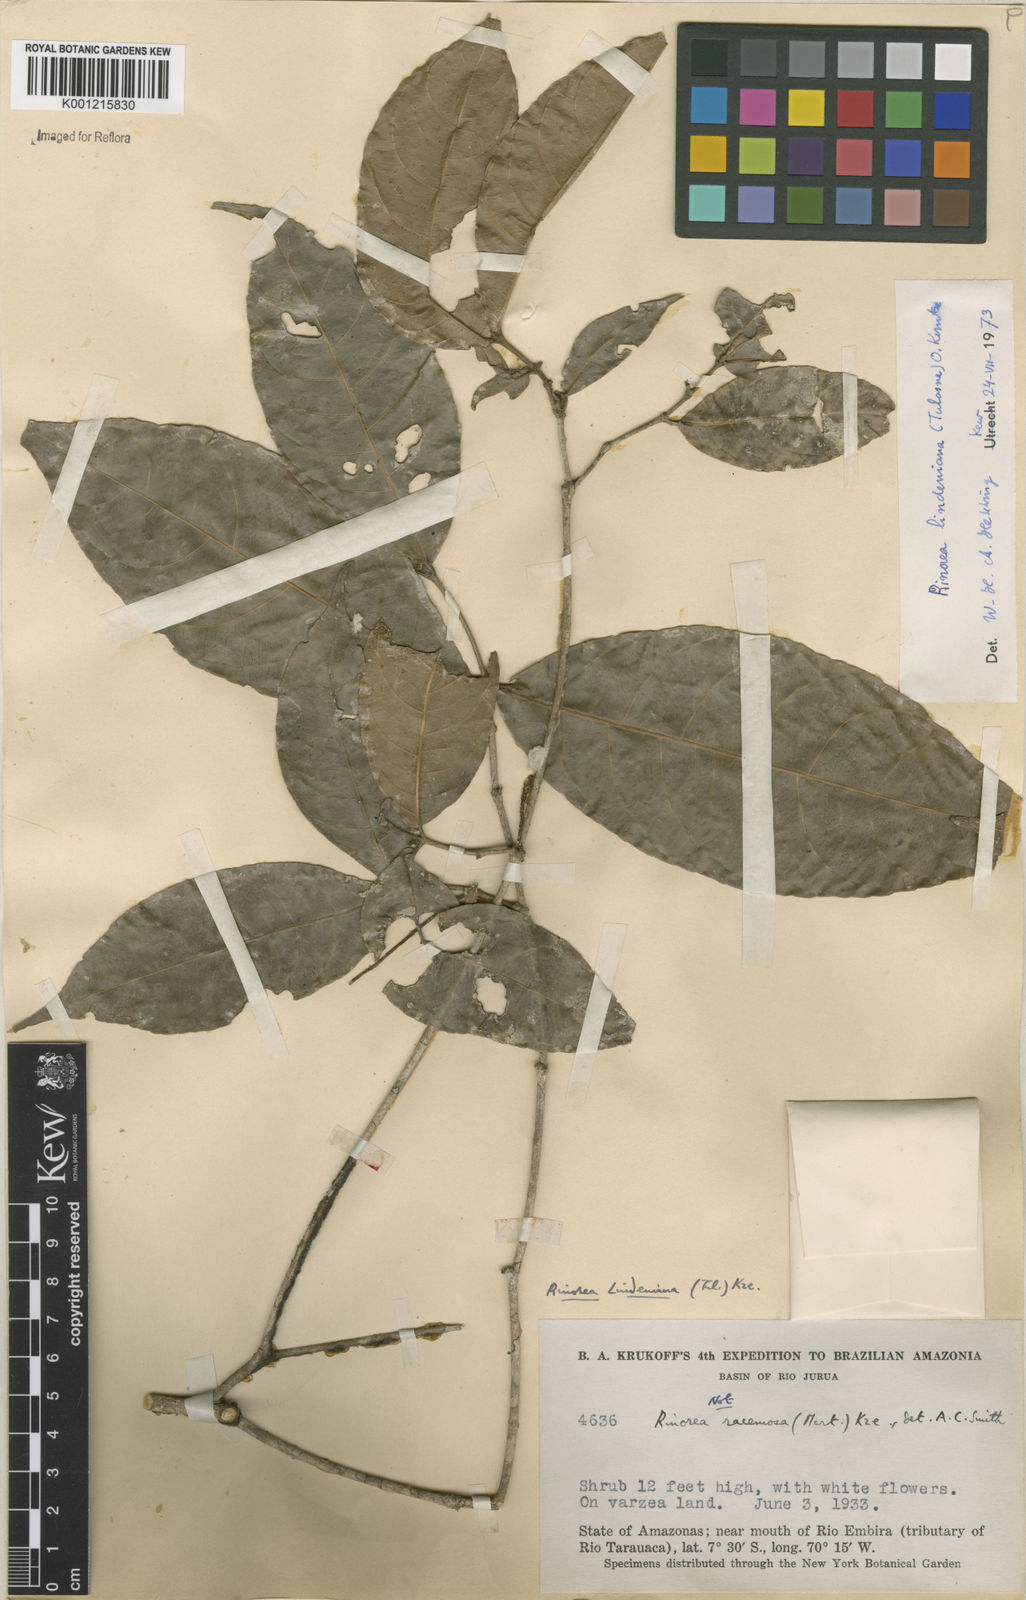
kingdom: Plantae
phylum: Tracheophyta
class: Magnoliopsida
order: Malpighiales
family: Violaceae
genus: Rinorea
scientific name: Rinorea lindeniana
